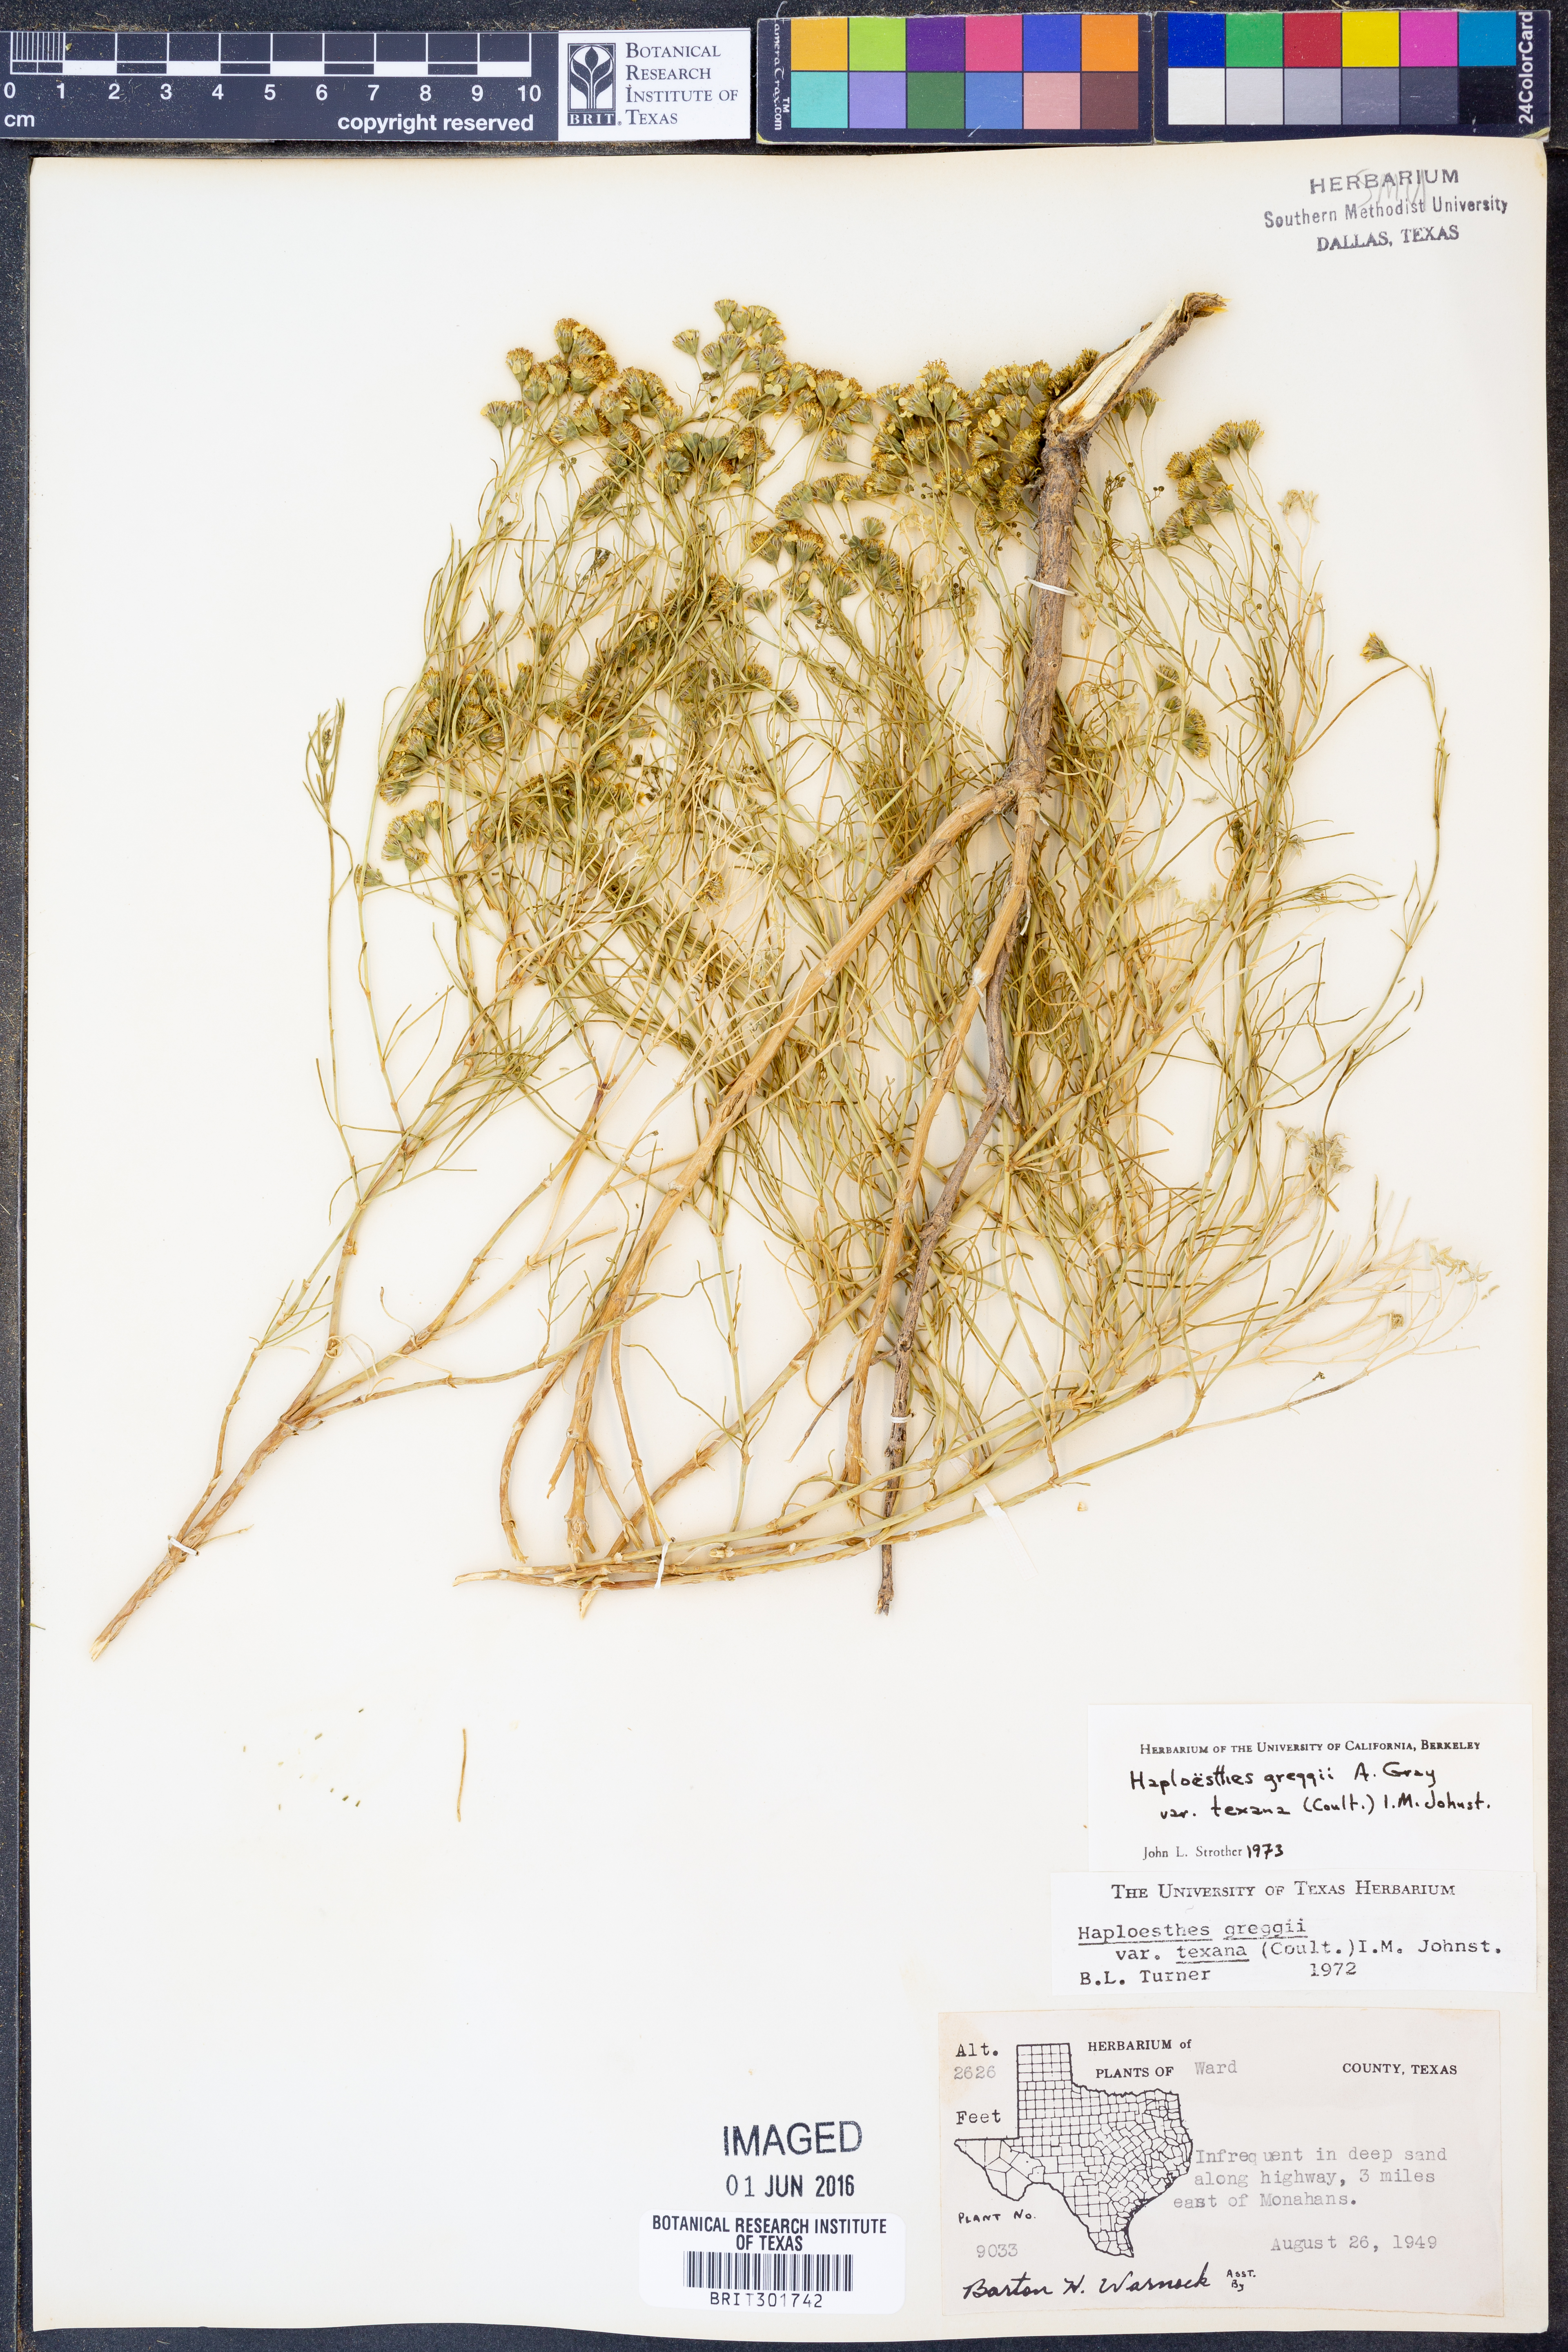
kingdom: Plantae
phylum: Tracheophyta
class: Magnoliopsida
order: Asterales
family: Asteraceae
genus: Haploesthes
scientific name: Haploesthes greggii
